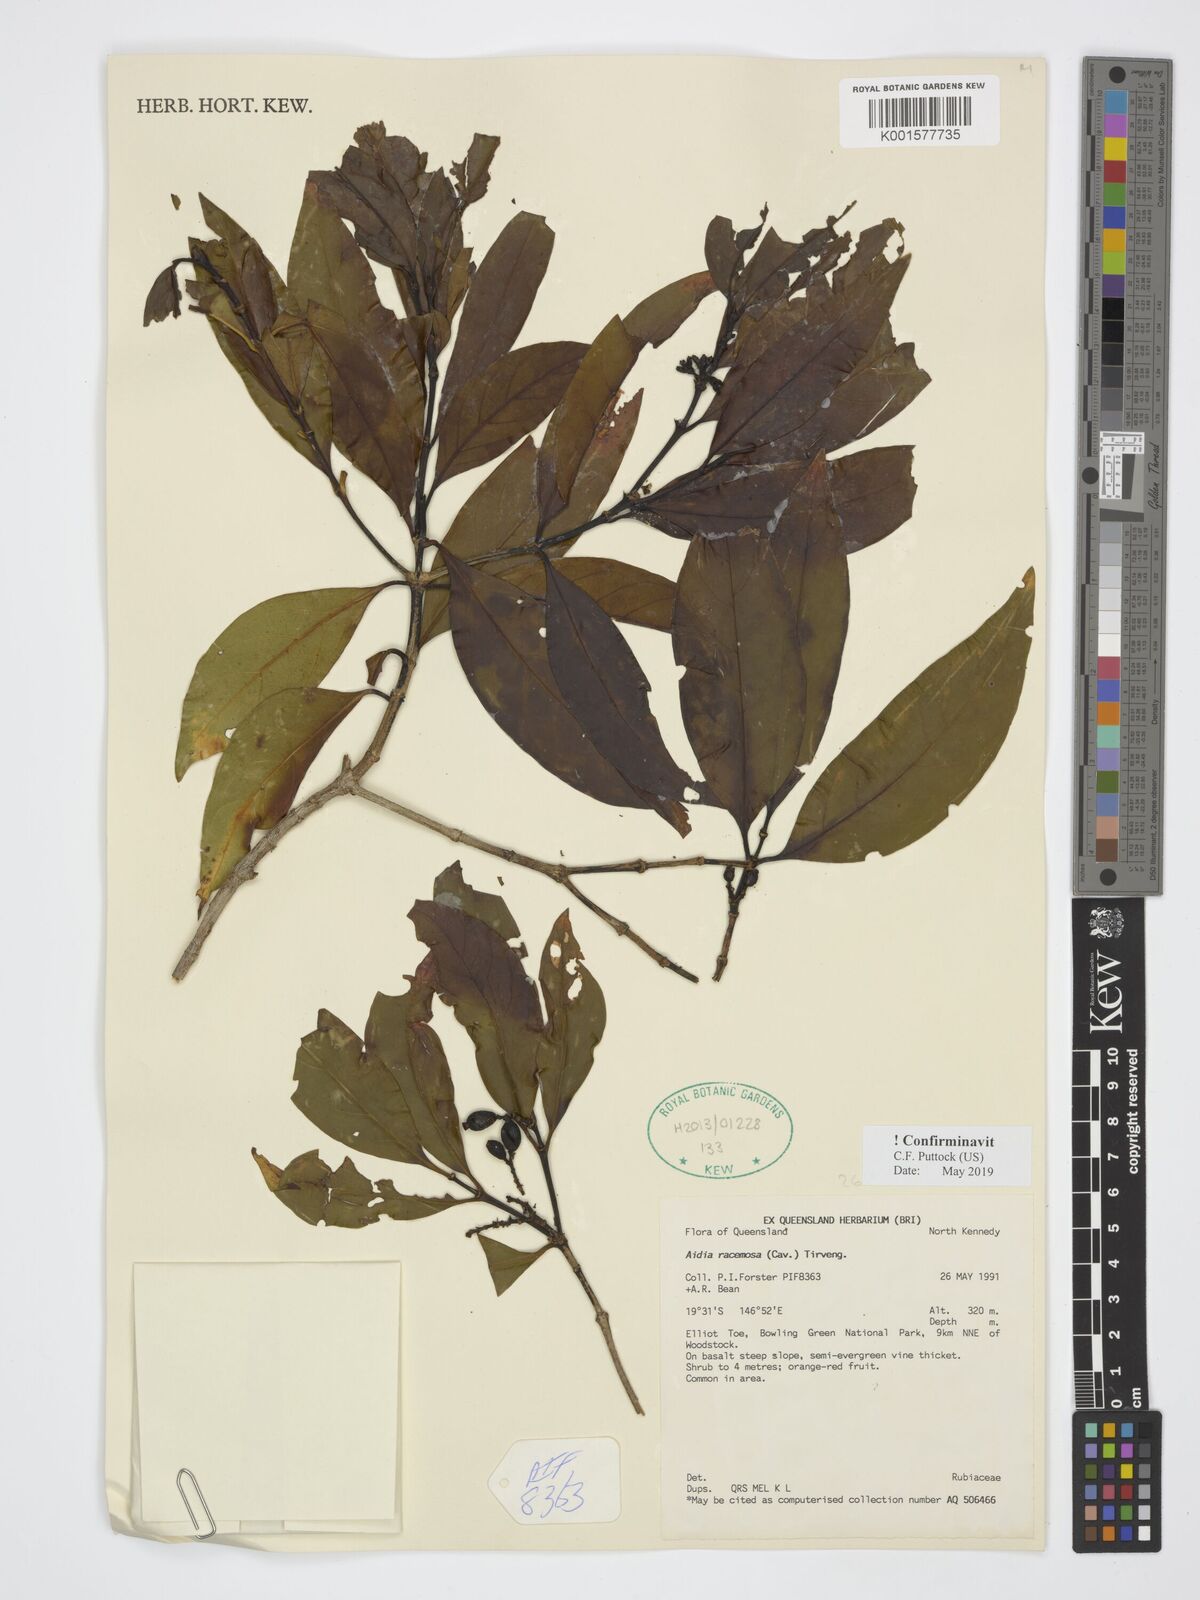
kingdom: Plantae
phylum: Tracheophyta
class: Magnoliopsida
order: Gentianales
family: Rubiaceae
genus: Aidia
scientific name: Aidia racemosa
